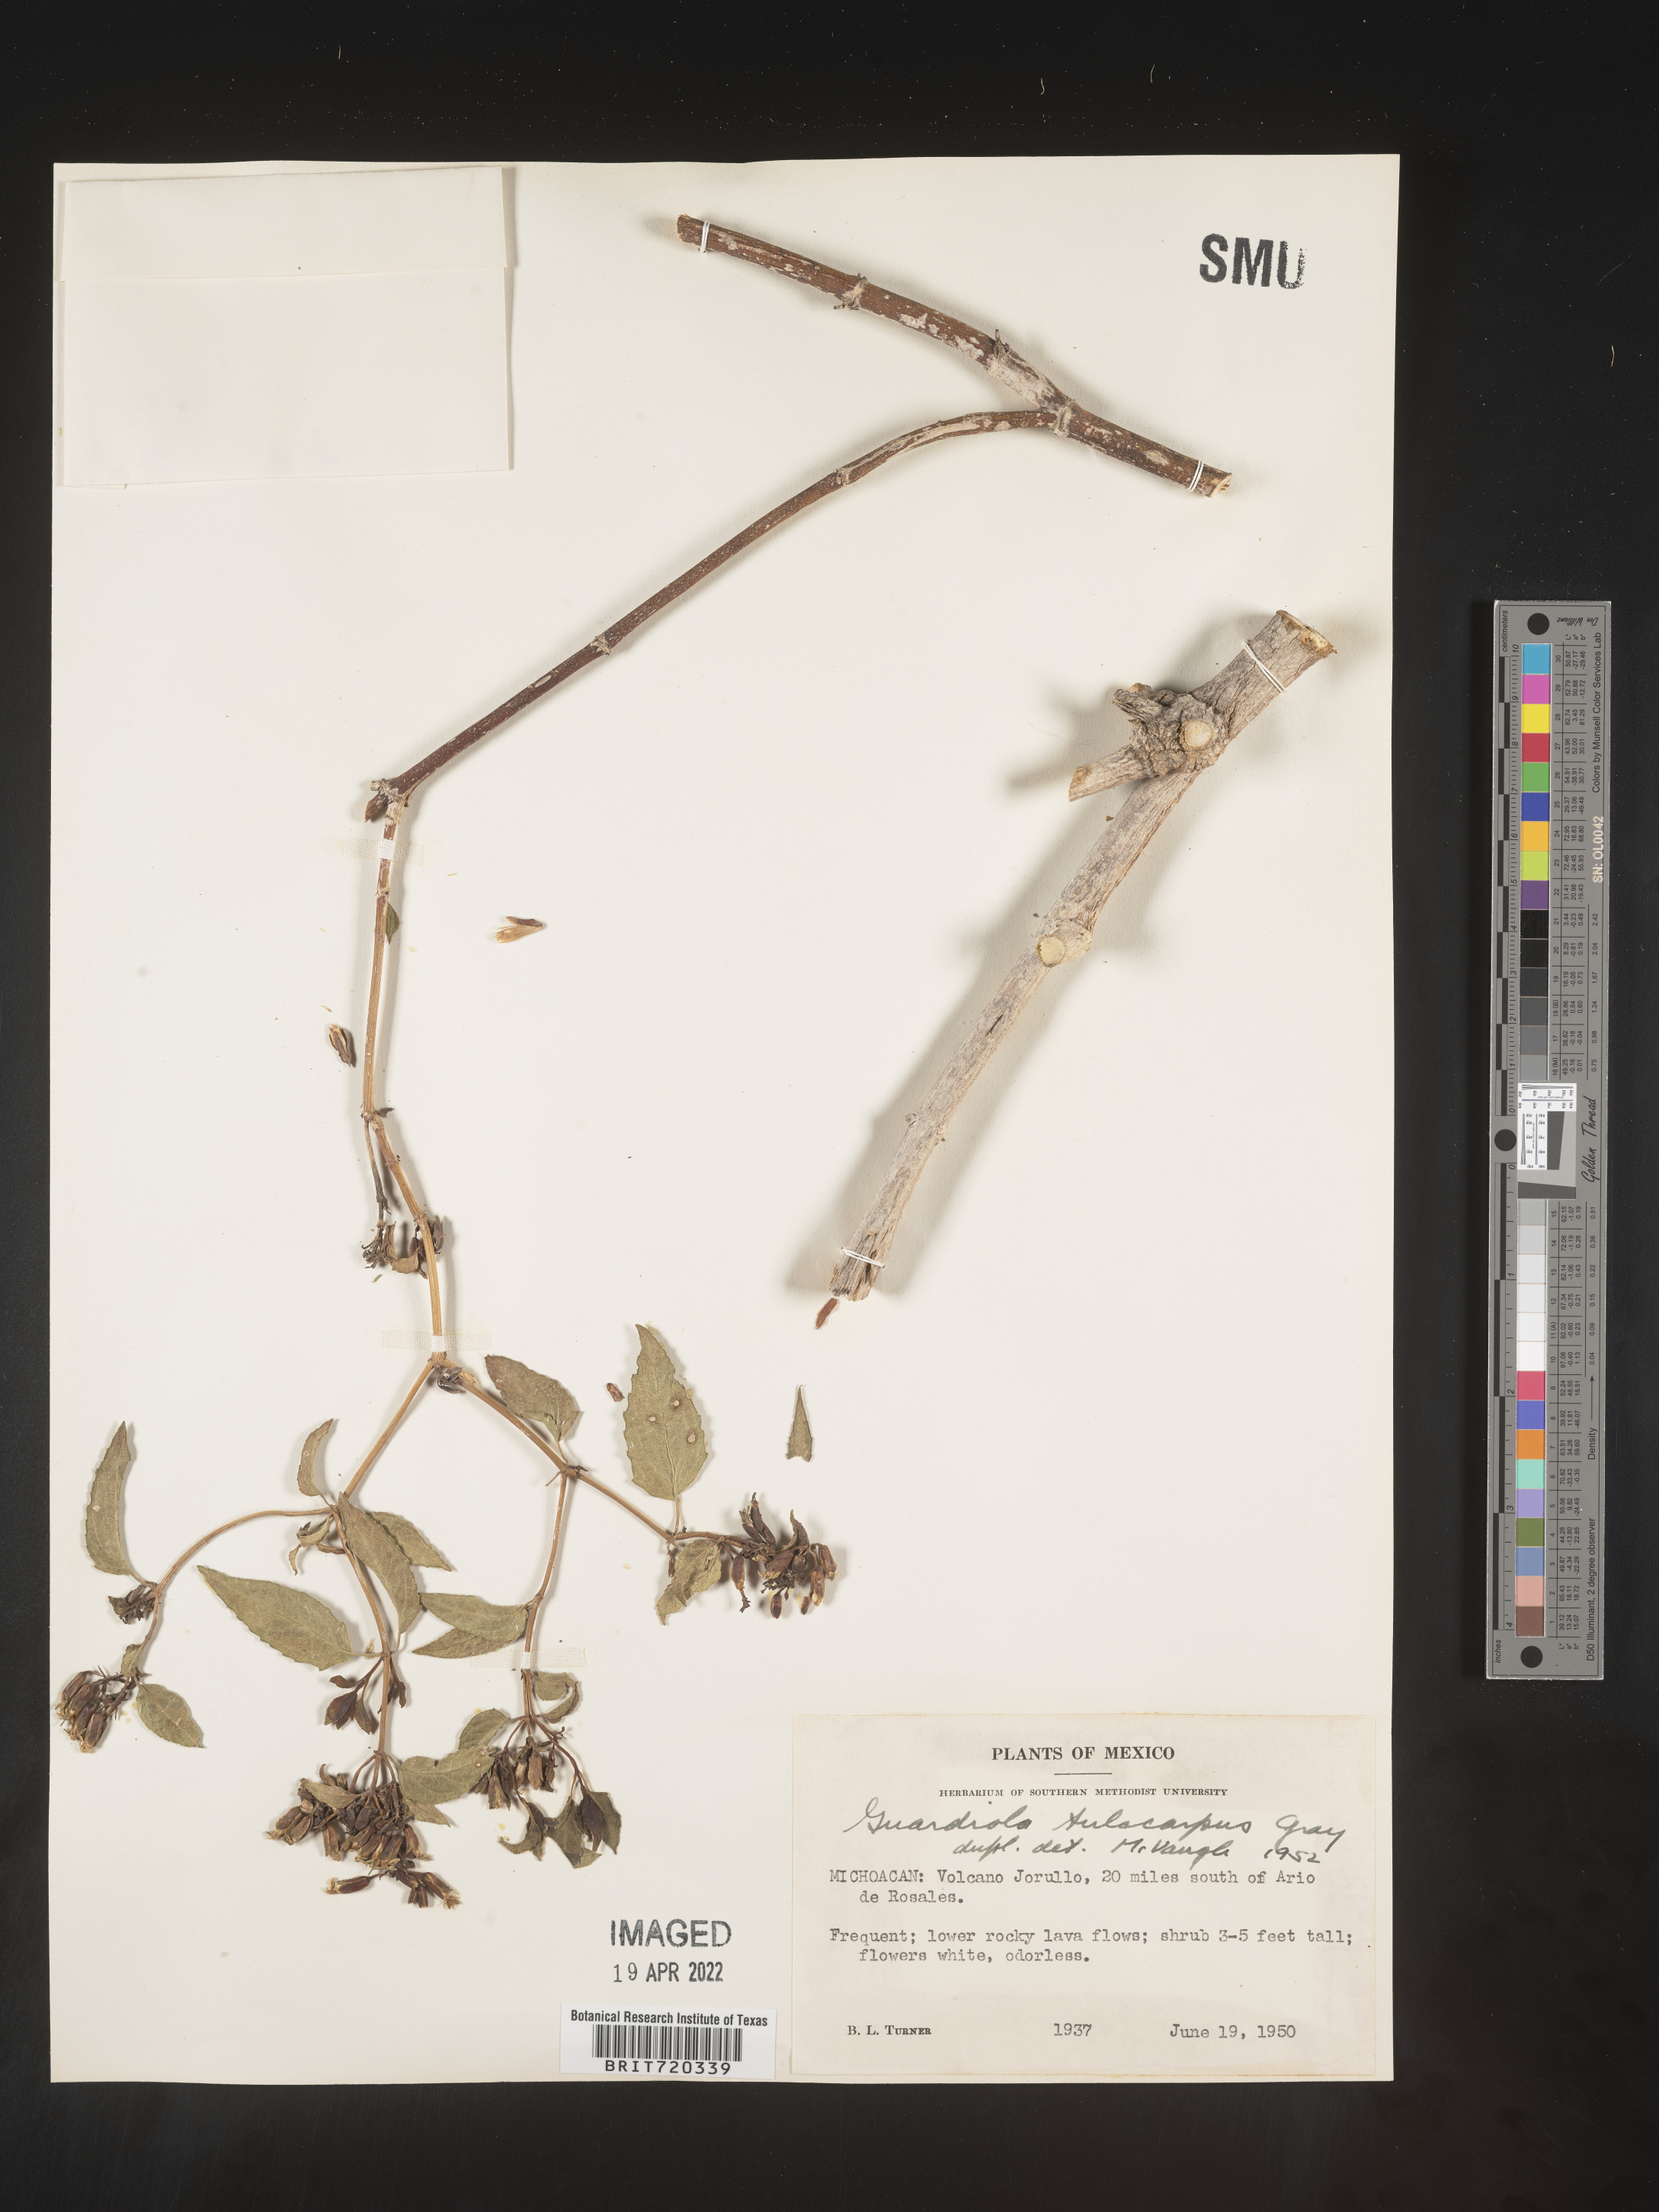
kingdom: Plantae
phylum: Tracheophyta
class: Magnoliopsida
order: Asterales
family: Asteraceae
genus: Guardiola
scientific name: Guardiola
